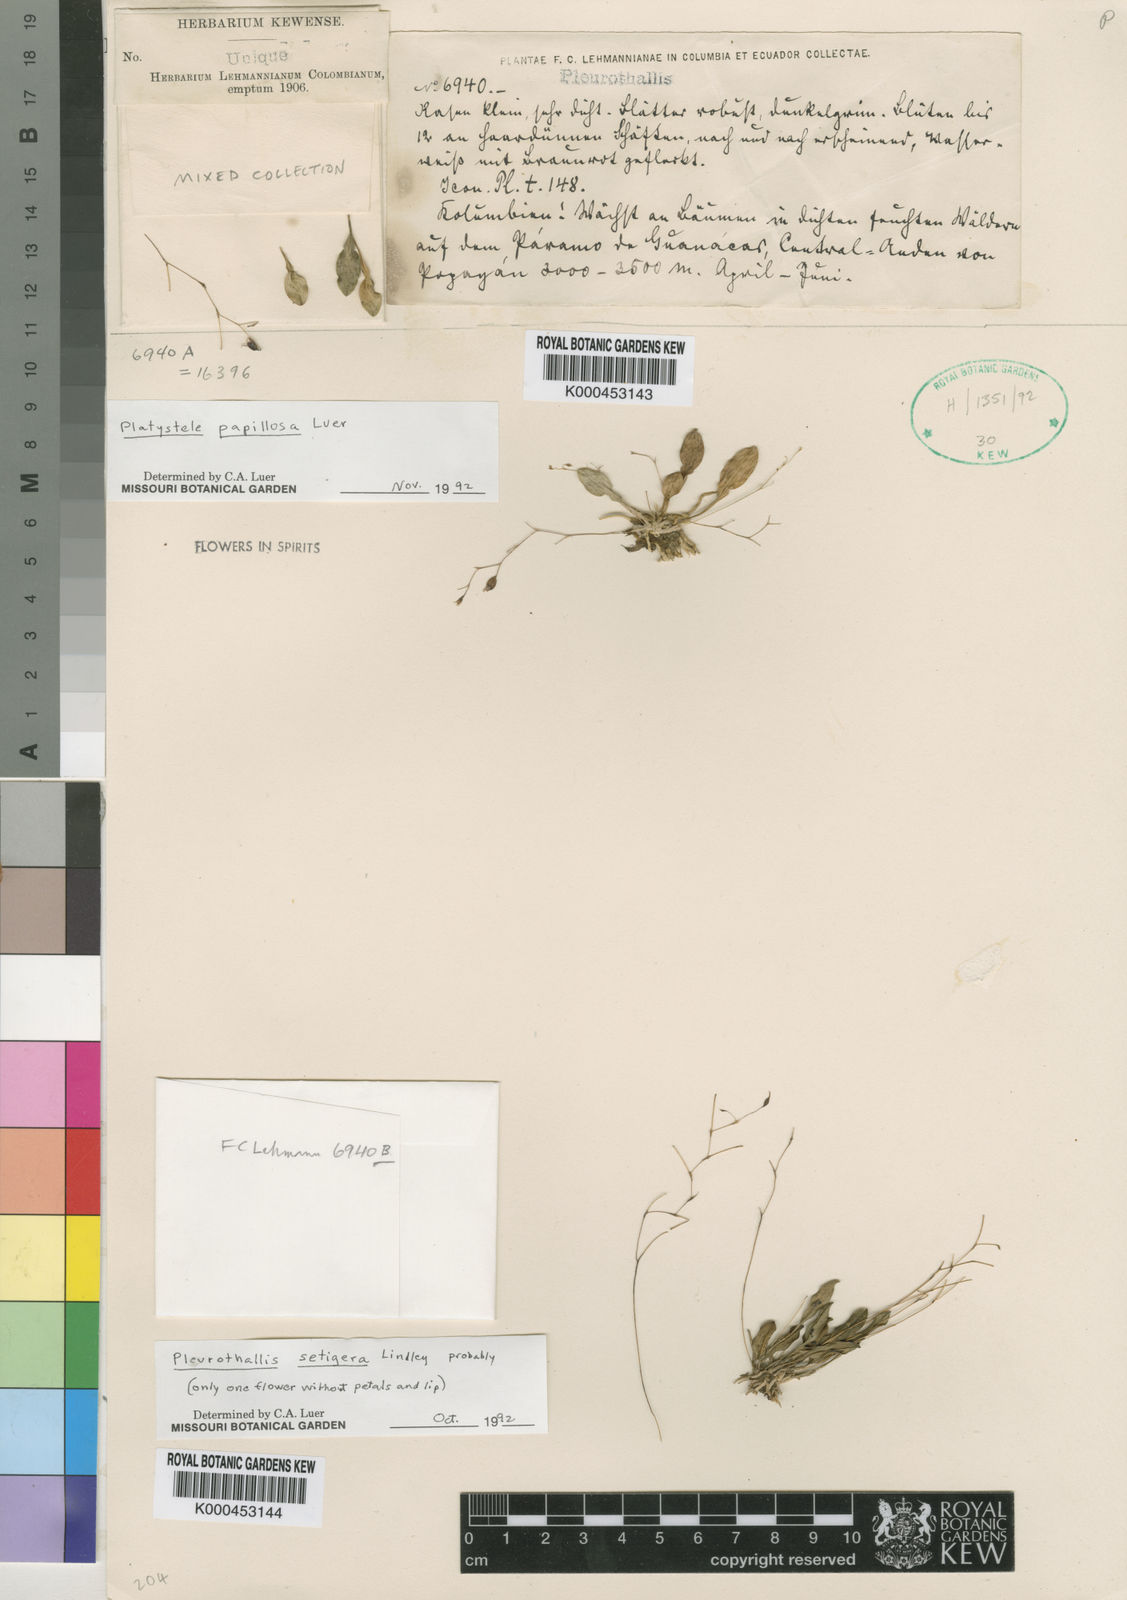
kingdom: Plantae
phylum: Tracheophyta
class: Liliopsida
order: Asparagales
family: Orchidaceae
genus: Muscarella
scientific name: Muscarella zephyrina
